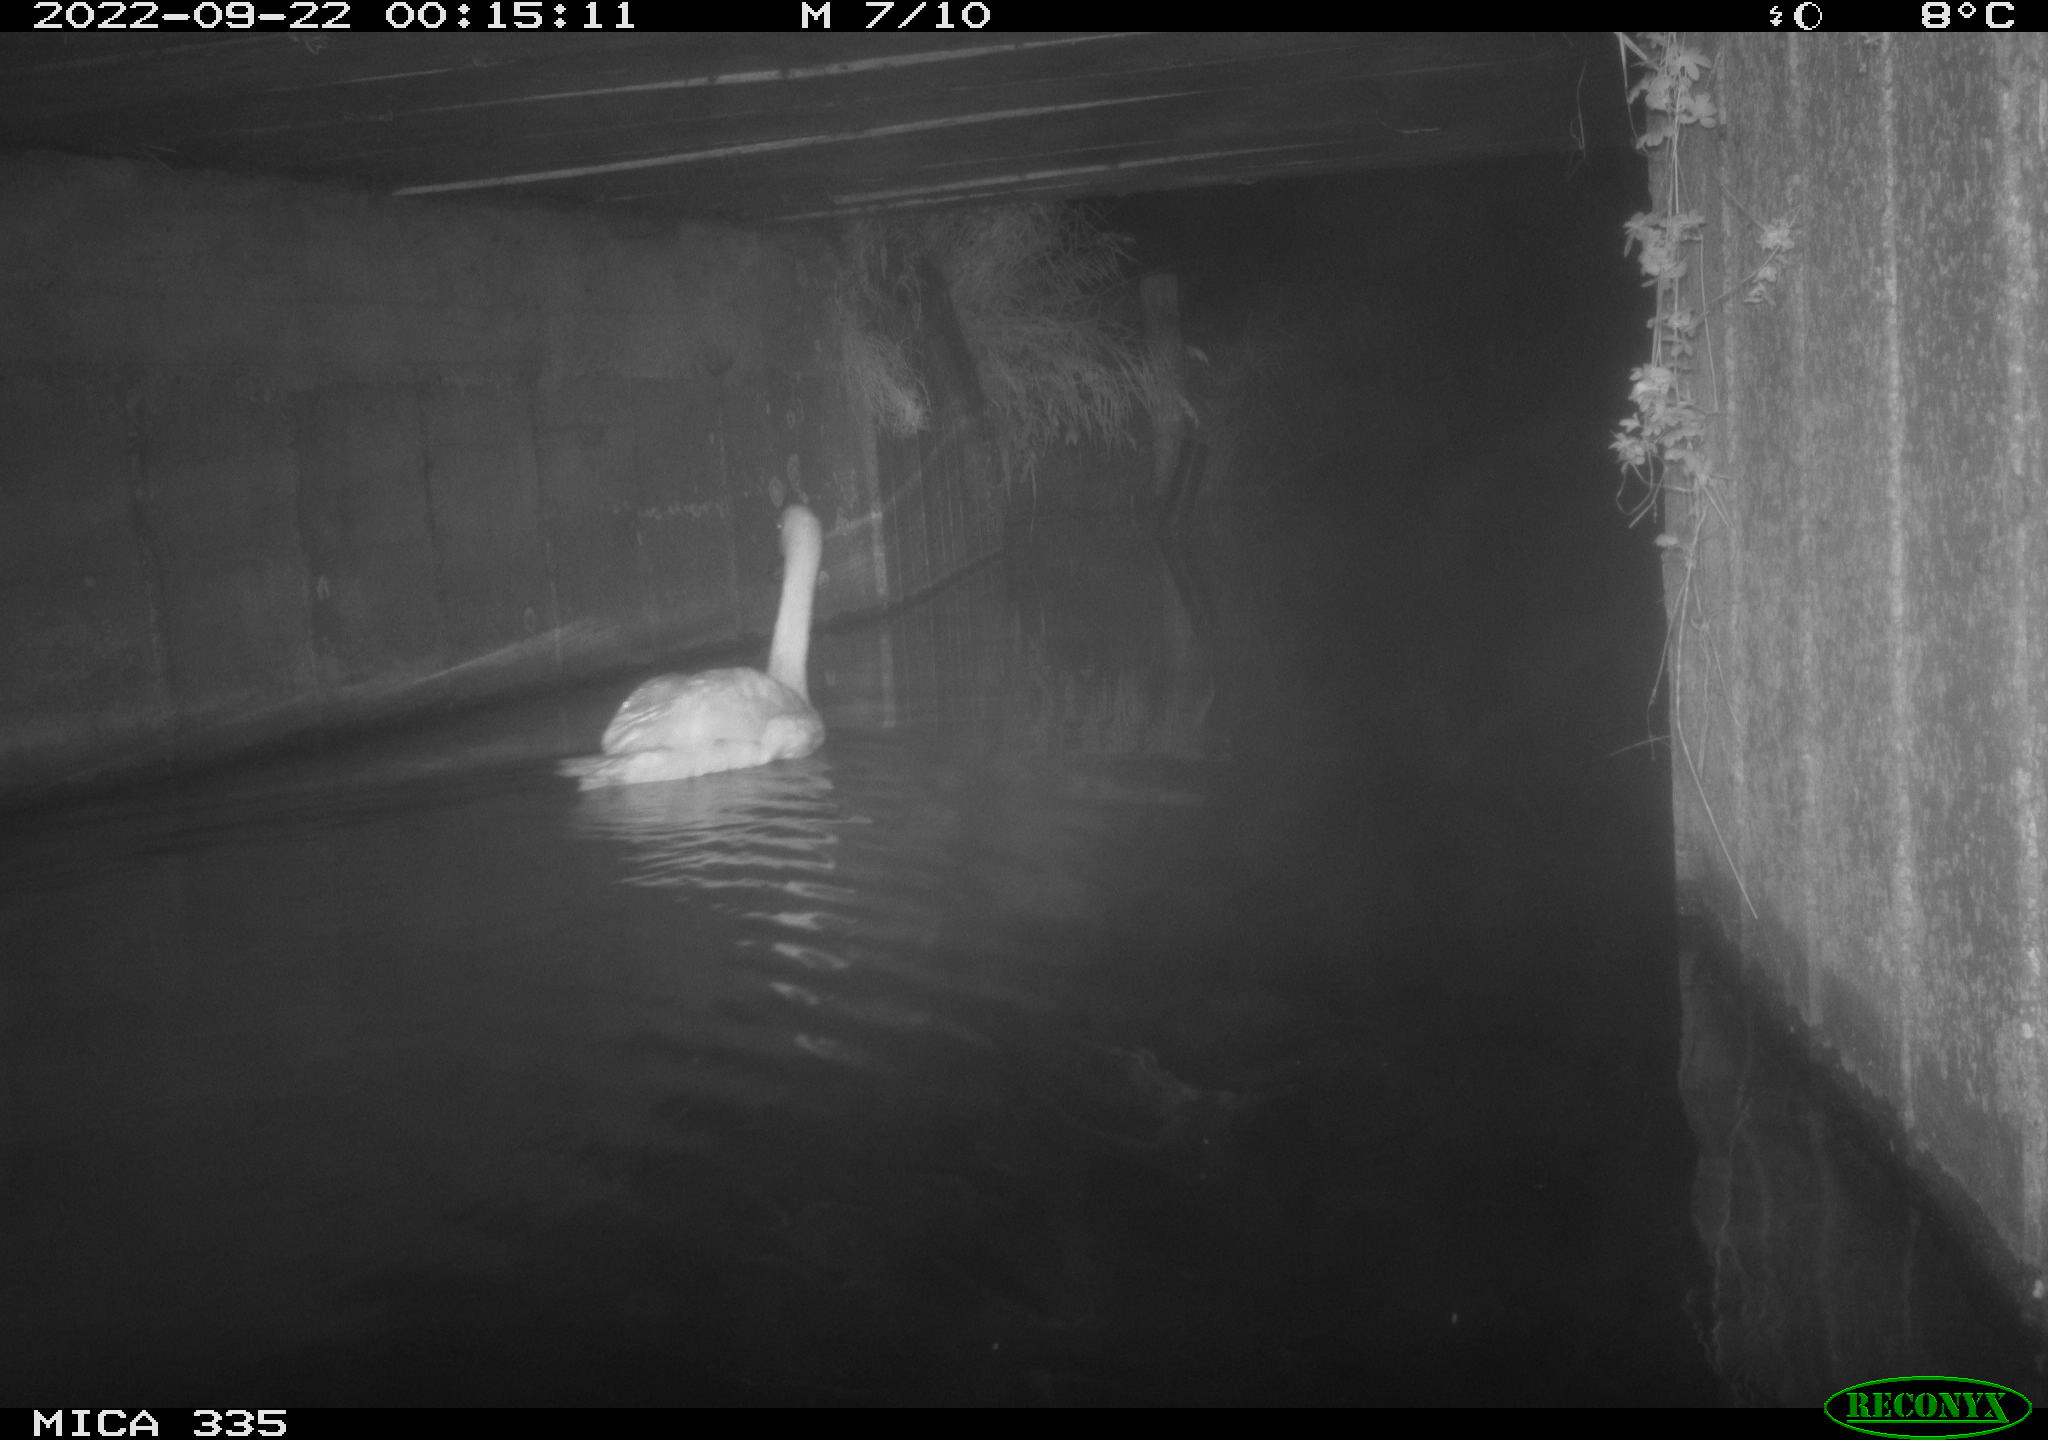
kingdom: Animalia
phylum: Chordata
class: Aves
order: Anseriformes
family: Anatidae
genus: Cygnus
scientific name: Cygnus olor
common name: Mute swan
